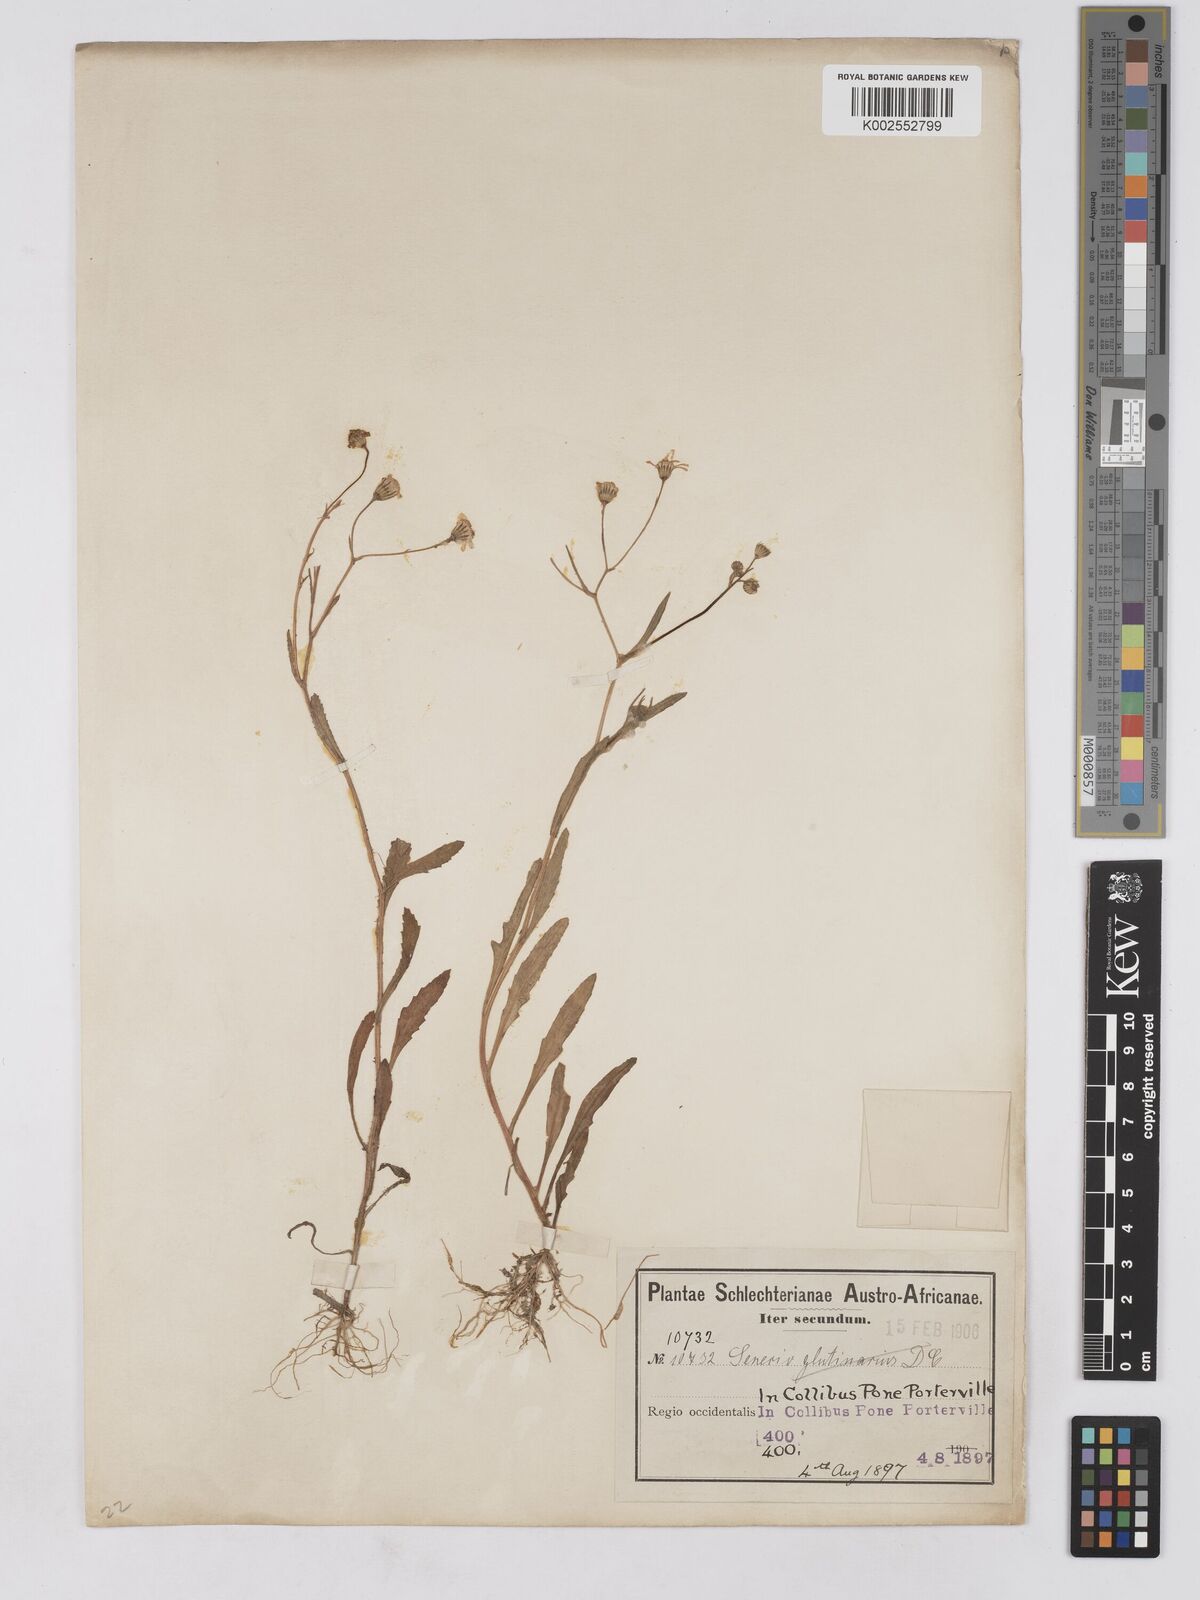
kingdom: Plantae
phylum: Tracheophyta
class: Magnoliopsida
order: Asterales
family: Asteraceae
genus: Senecio
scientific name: Senecio abruptus
